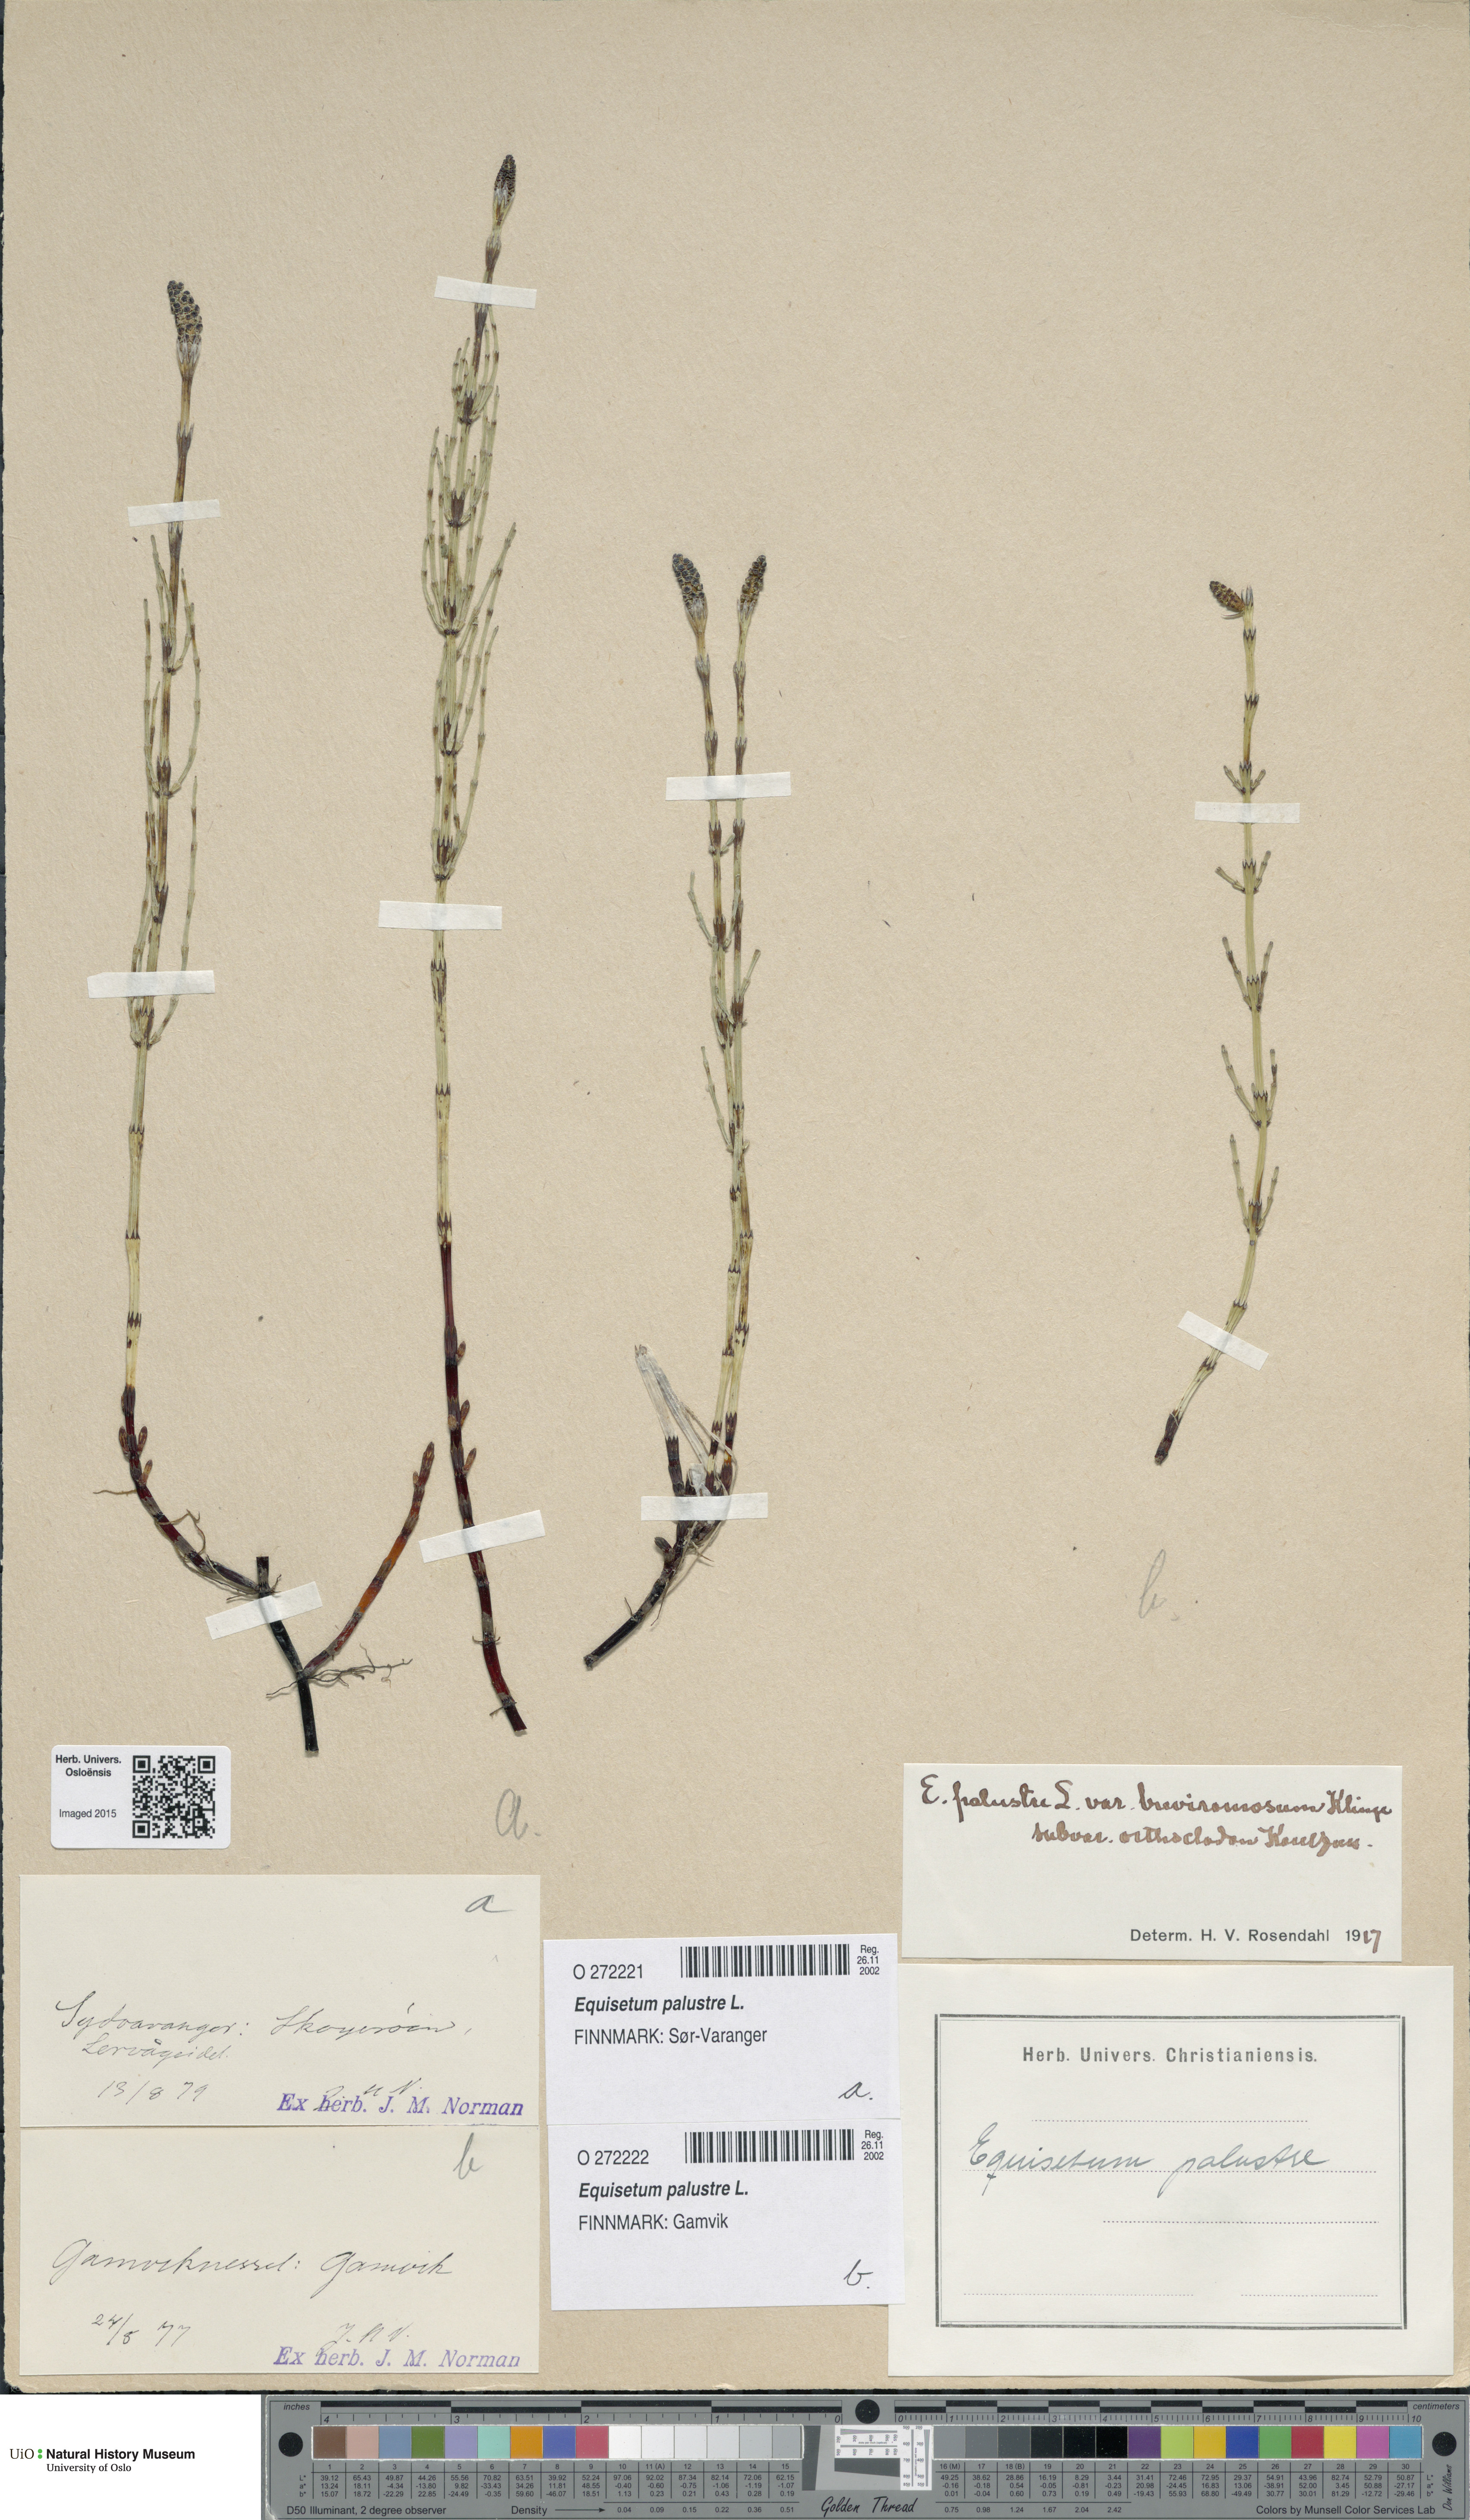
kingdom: Plantae
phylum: Tracheophyta
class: Polypodiopsida
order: Equisetales
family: Equisetaceae
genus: Equisetum
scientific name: Equisetum palustre
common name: Marsh horsetail
